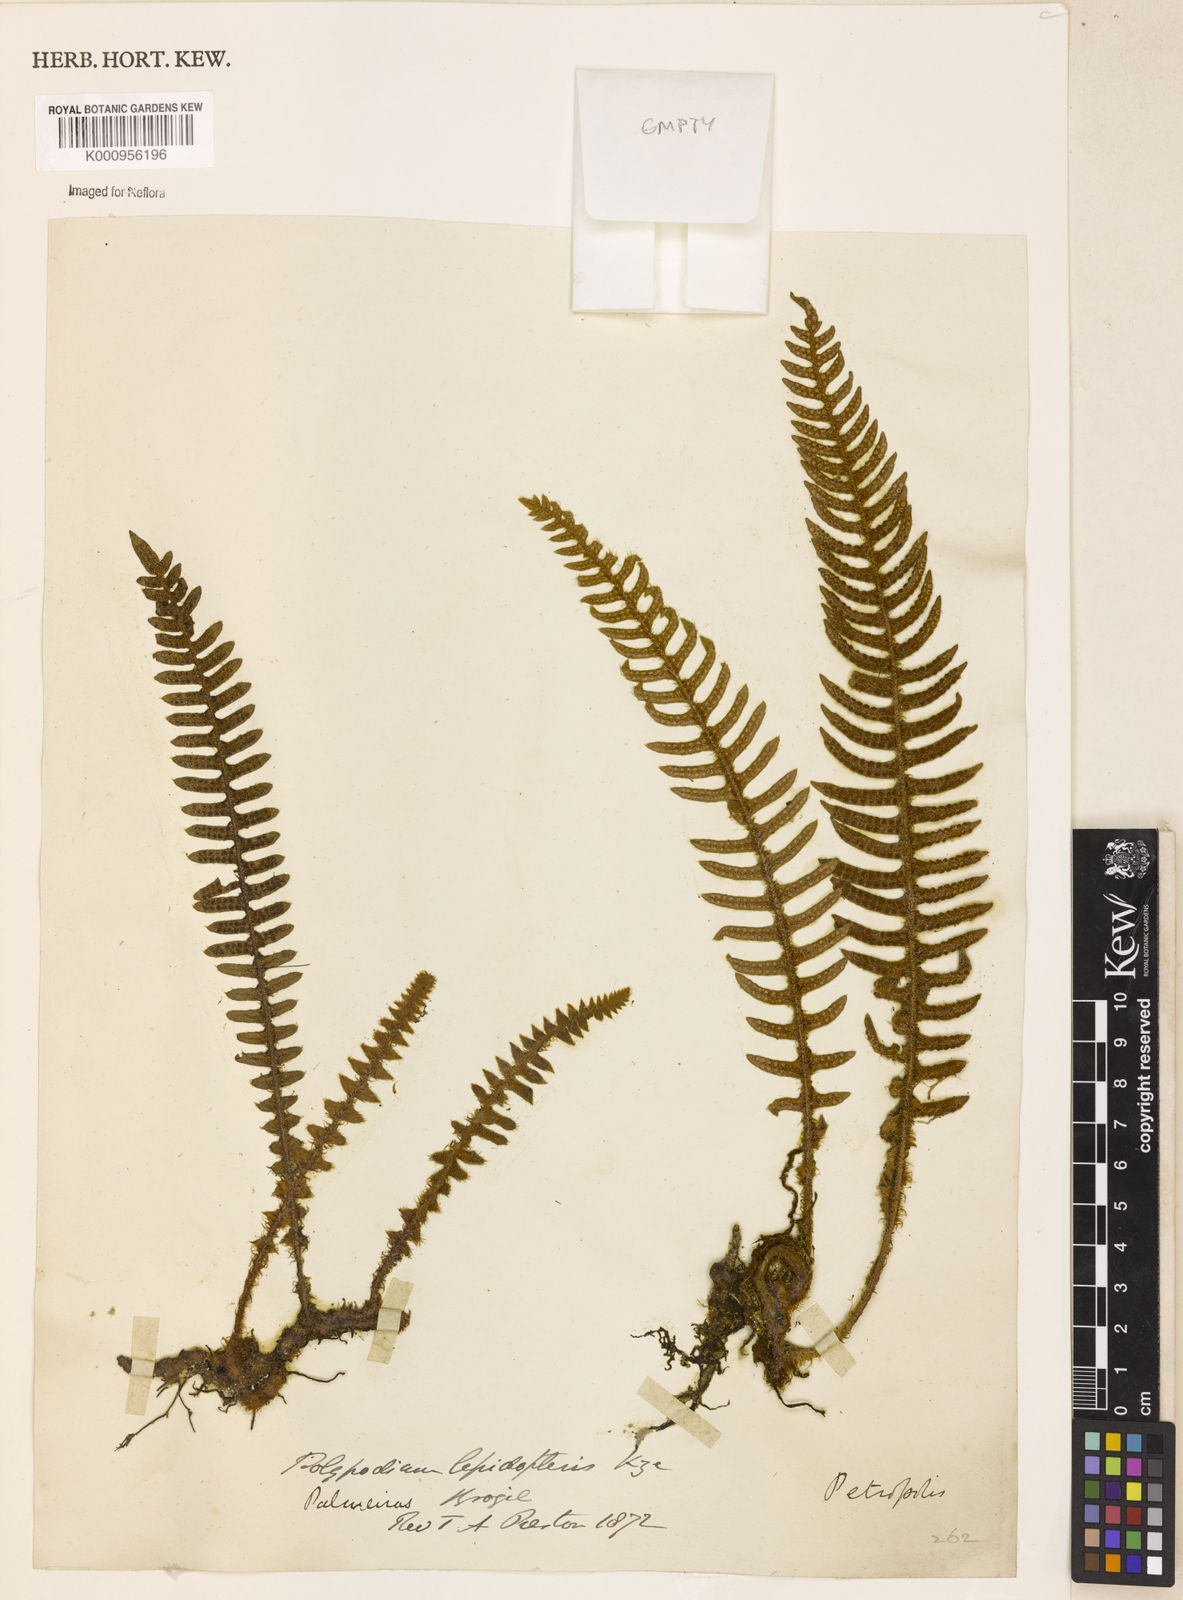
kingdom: Plantae
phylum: Tracheophyta
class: Polypodiopsida
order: Polypodiales
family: Polypodiaceae
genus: Pleopeltis
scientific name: Pleopeltis lepidopteris
